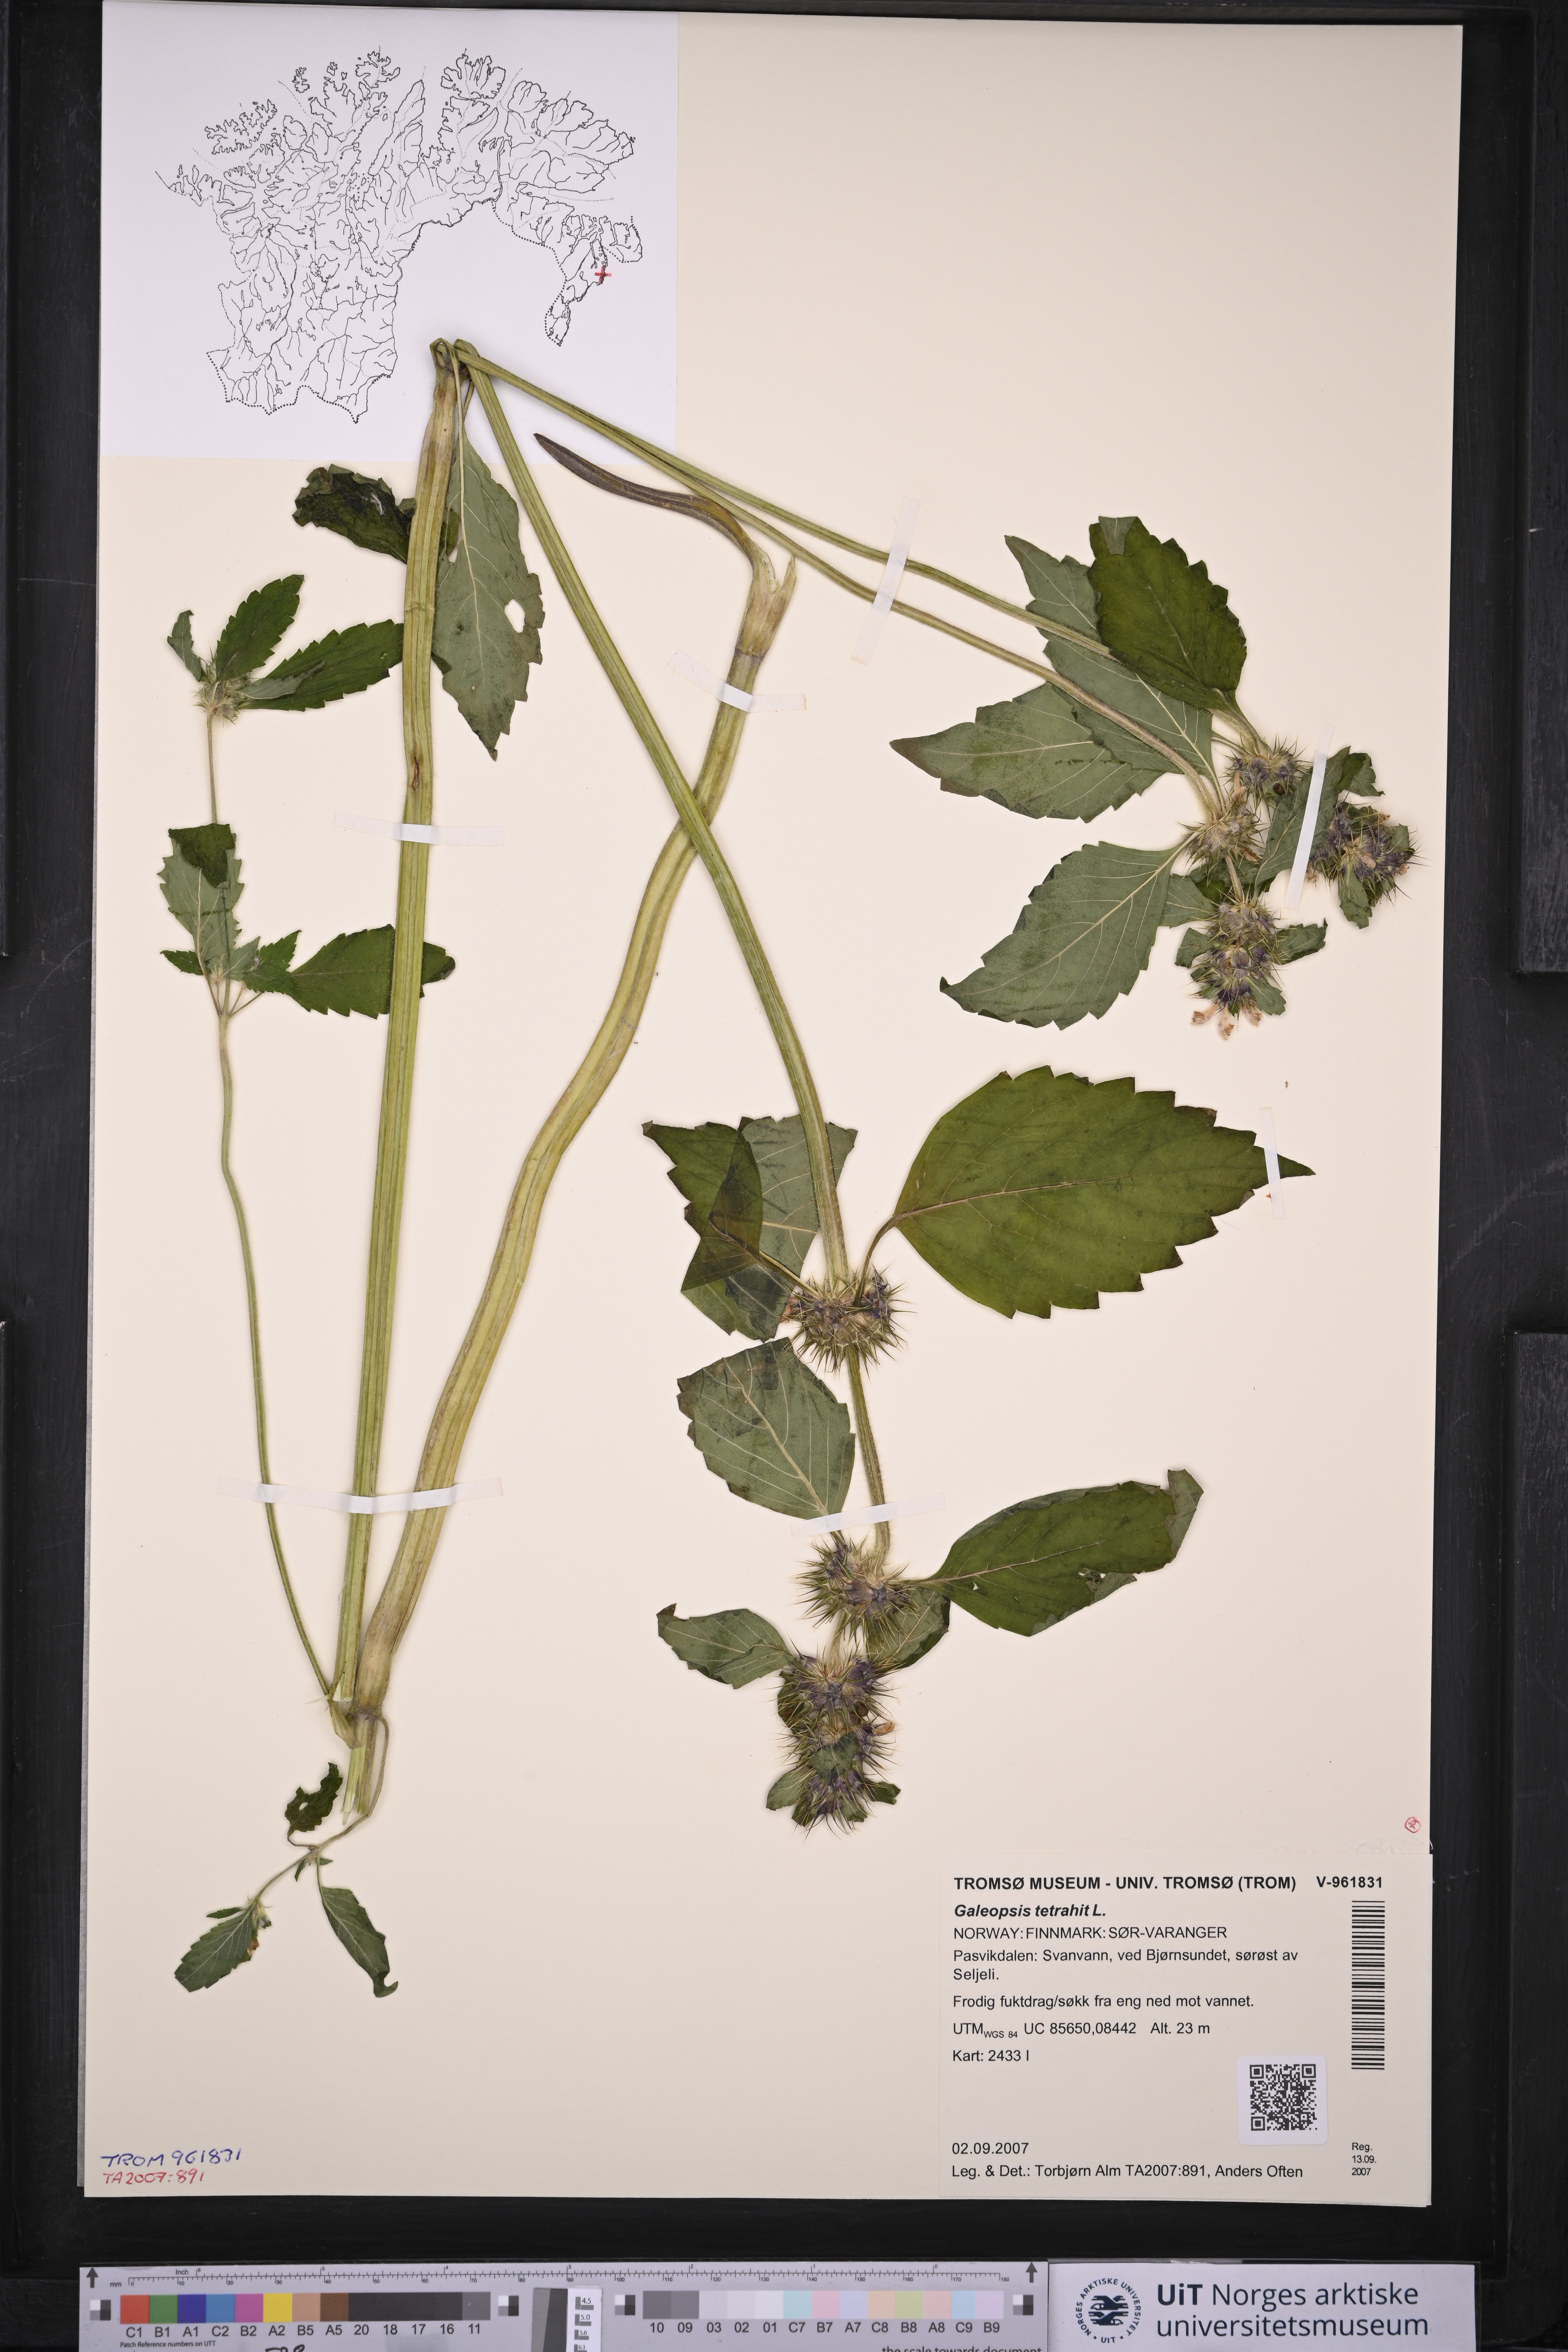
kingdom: Plantae
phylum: Tracheophyta
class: Magnoliopsida
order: Lamiales
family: Lamiaceae
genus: Galeopsis
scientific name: Galeopsis tetrahit
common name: Common hemp-nettle
